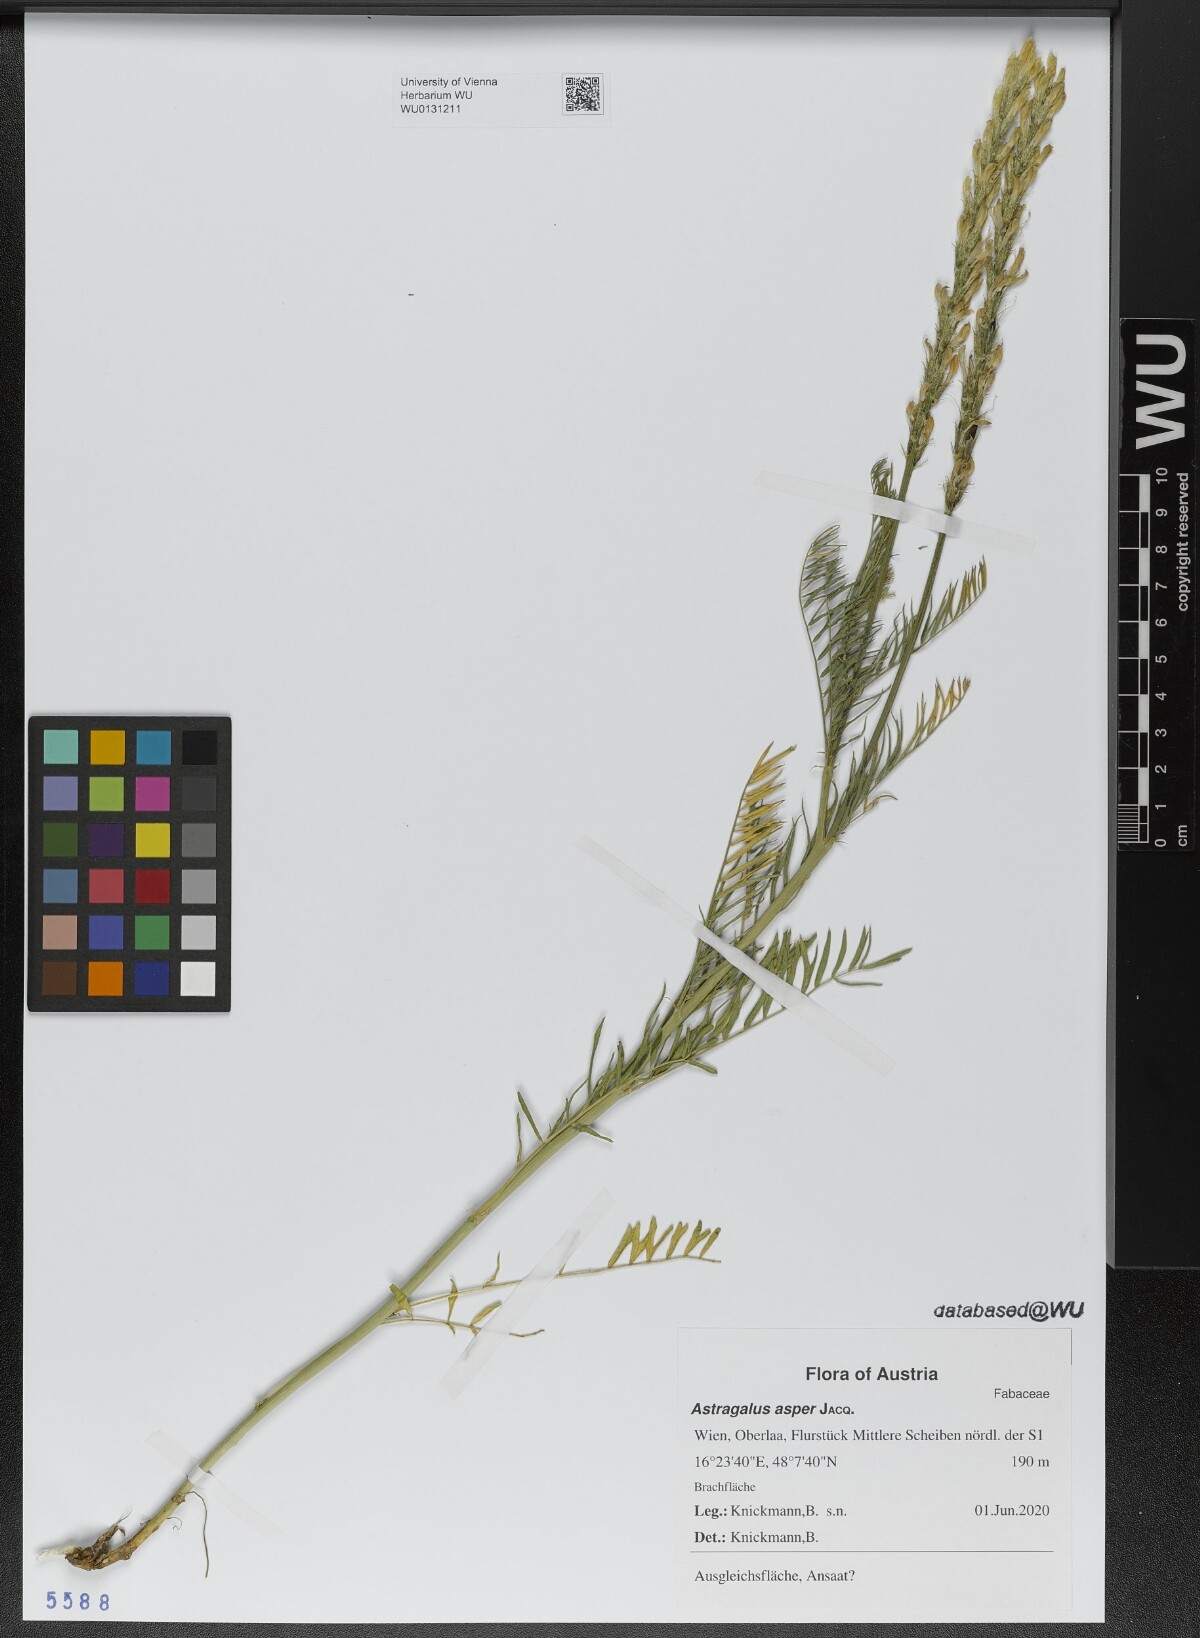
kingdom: Plantae
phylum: Tracheophyta
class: Magnoliopsida
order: Fabales
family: Fabaceae
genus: Astragalus
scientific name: Astragalus asper
